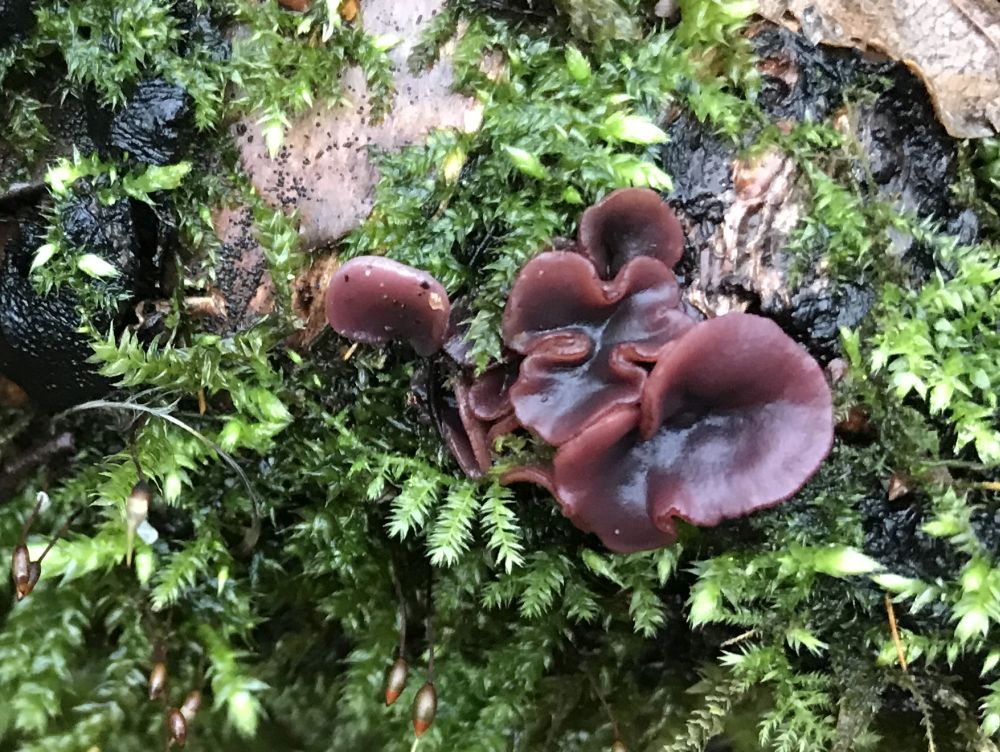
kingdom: Fungi
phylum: Ascomycota
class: Leotiomycetes
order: Helotiales
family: Gelatinodiscaceae
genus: Ascocoryne
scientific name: Ascocoryne cylichnium
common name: stor sejskive
